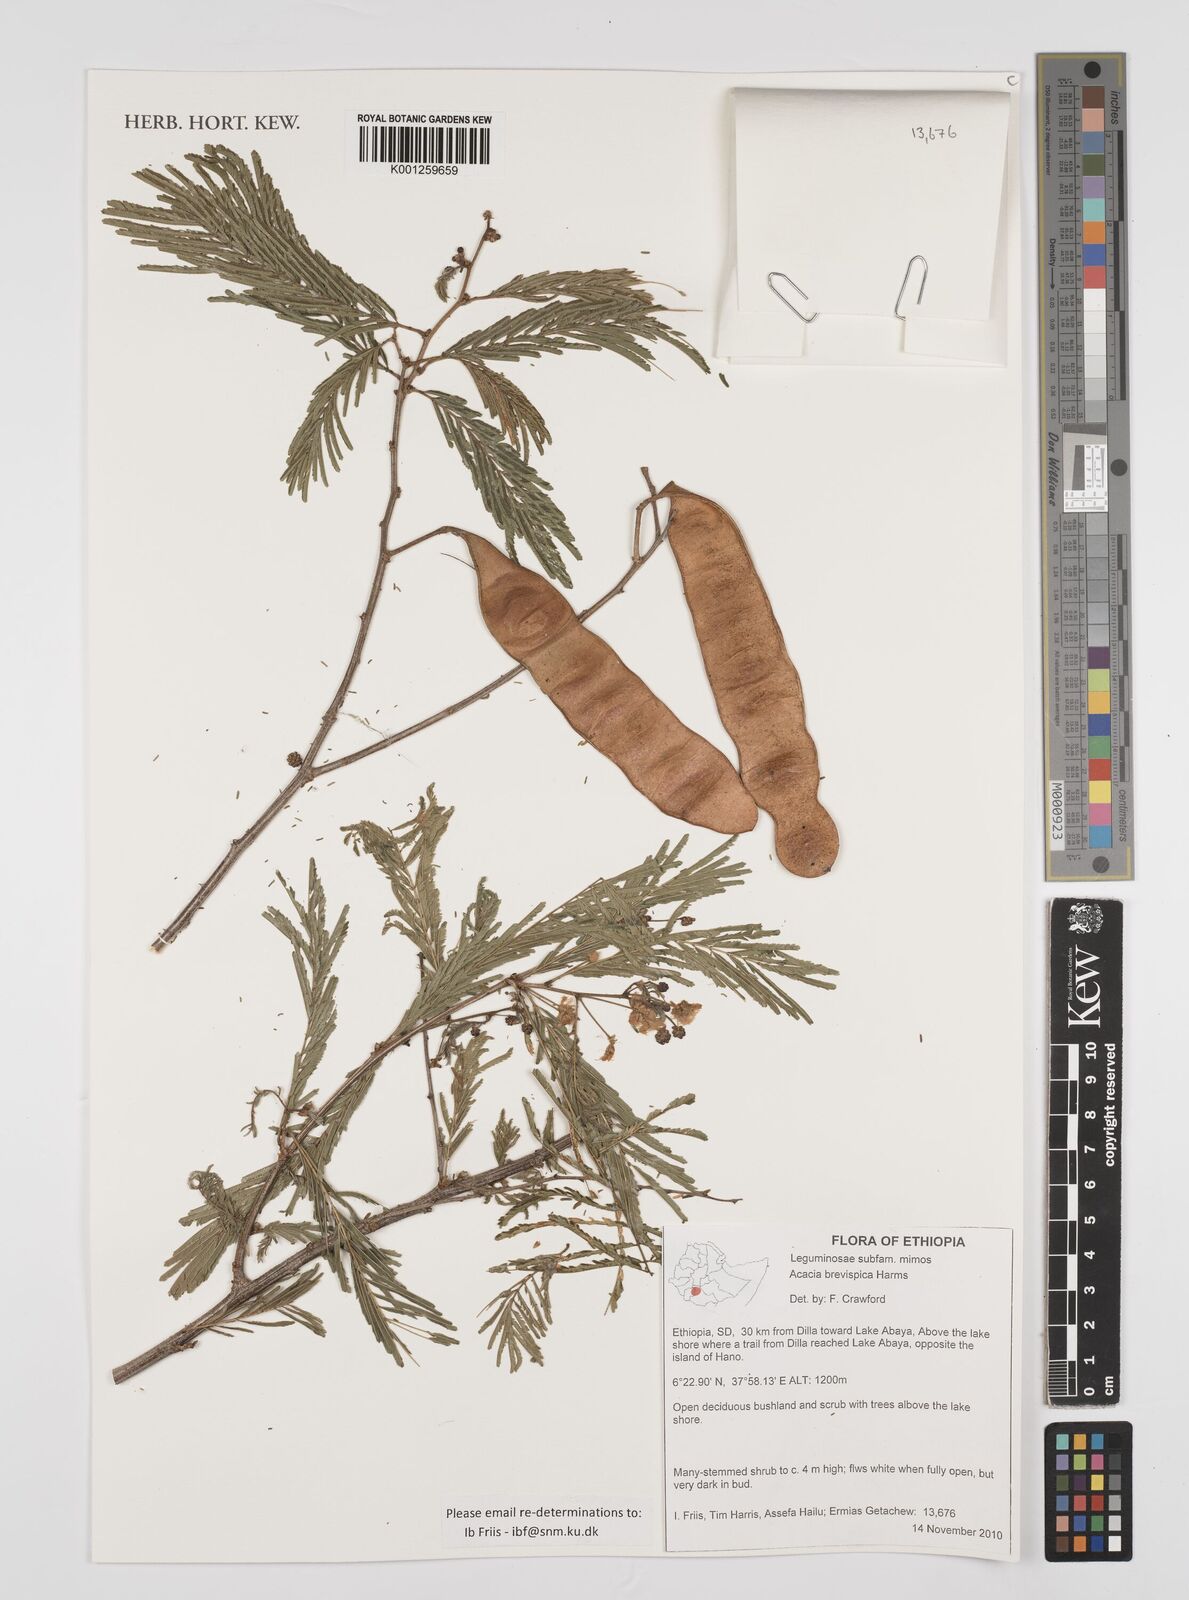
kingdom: Plantae
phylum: Tracheophyta
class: Magnoliopsida
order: Fabales
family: Fabaceae
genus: Senegalia
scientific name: Senegalia brevispica
